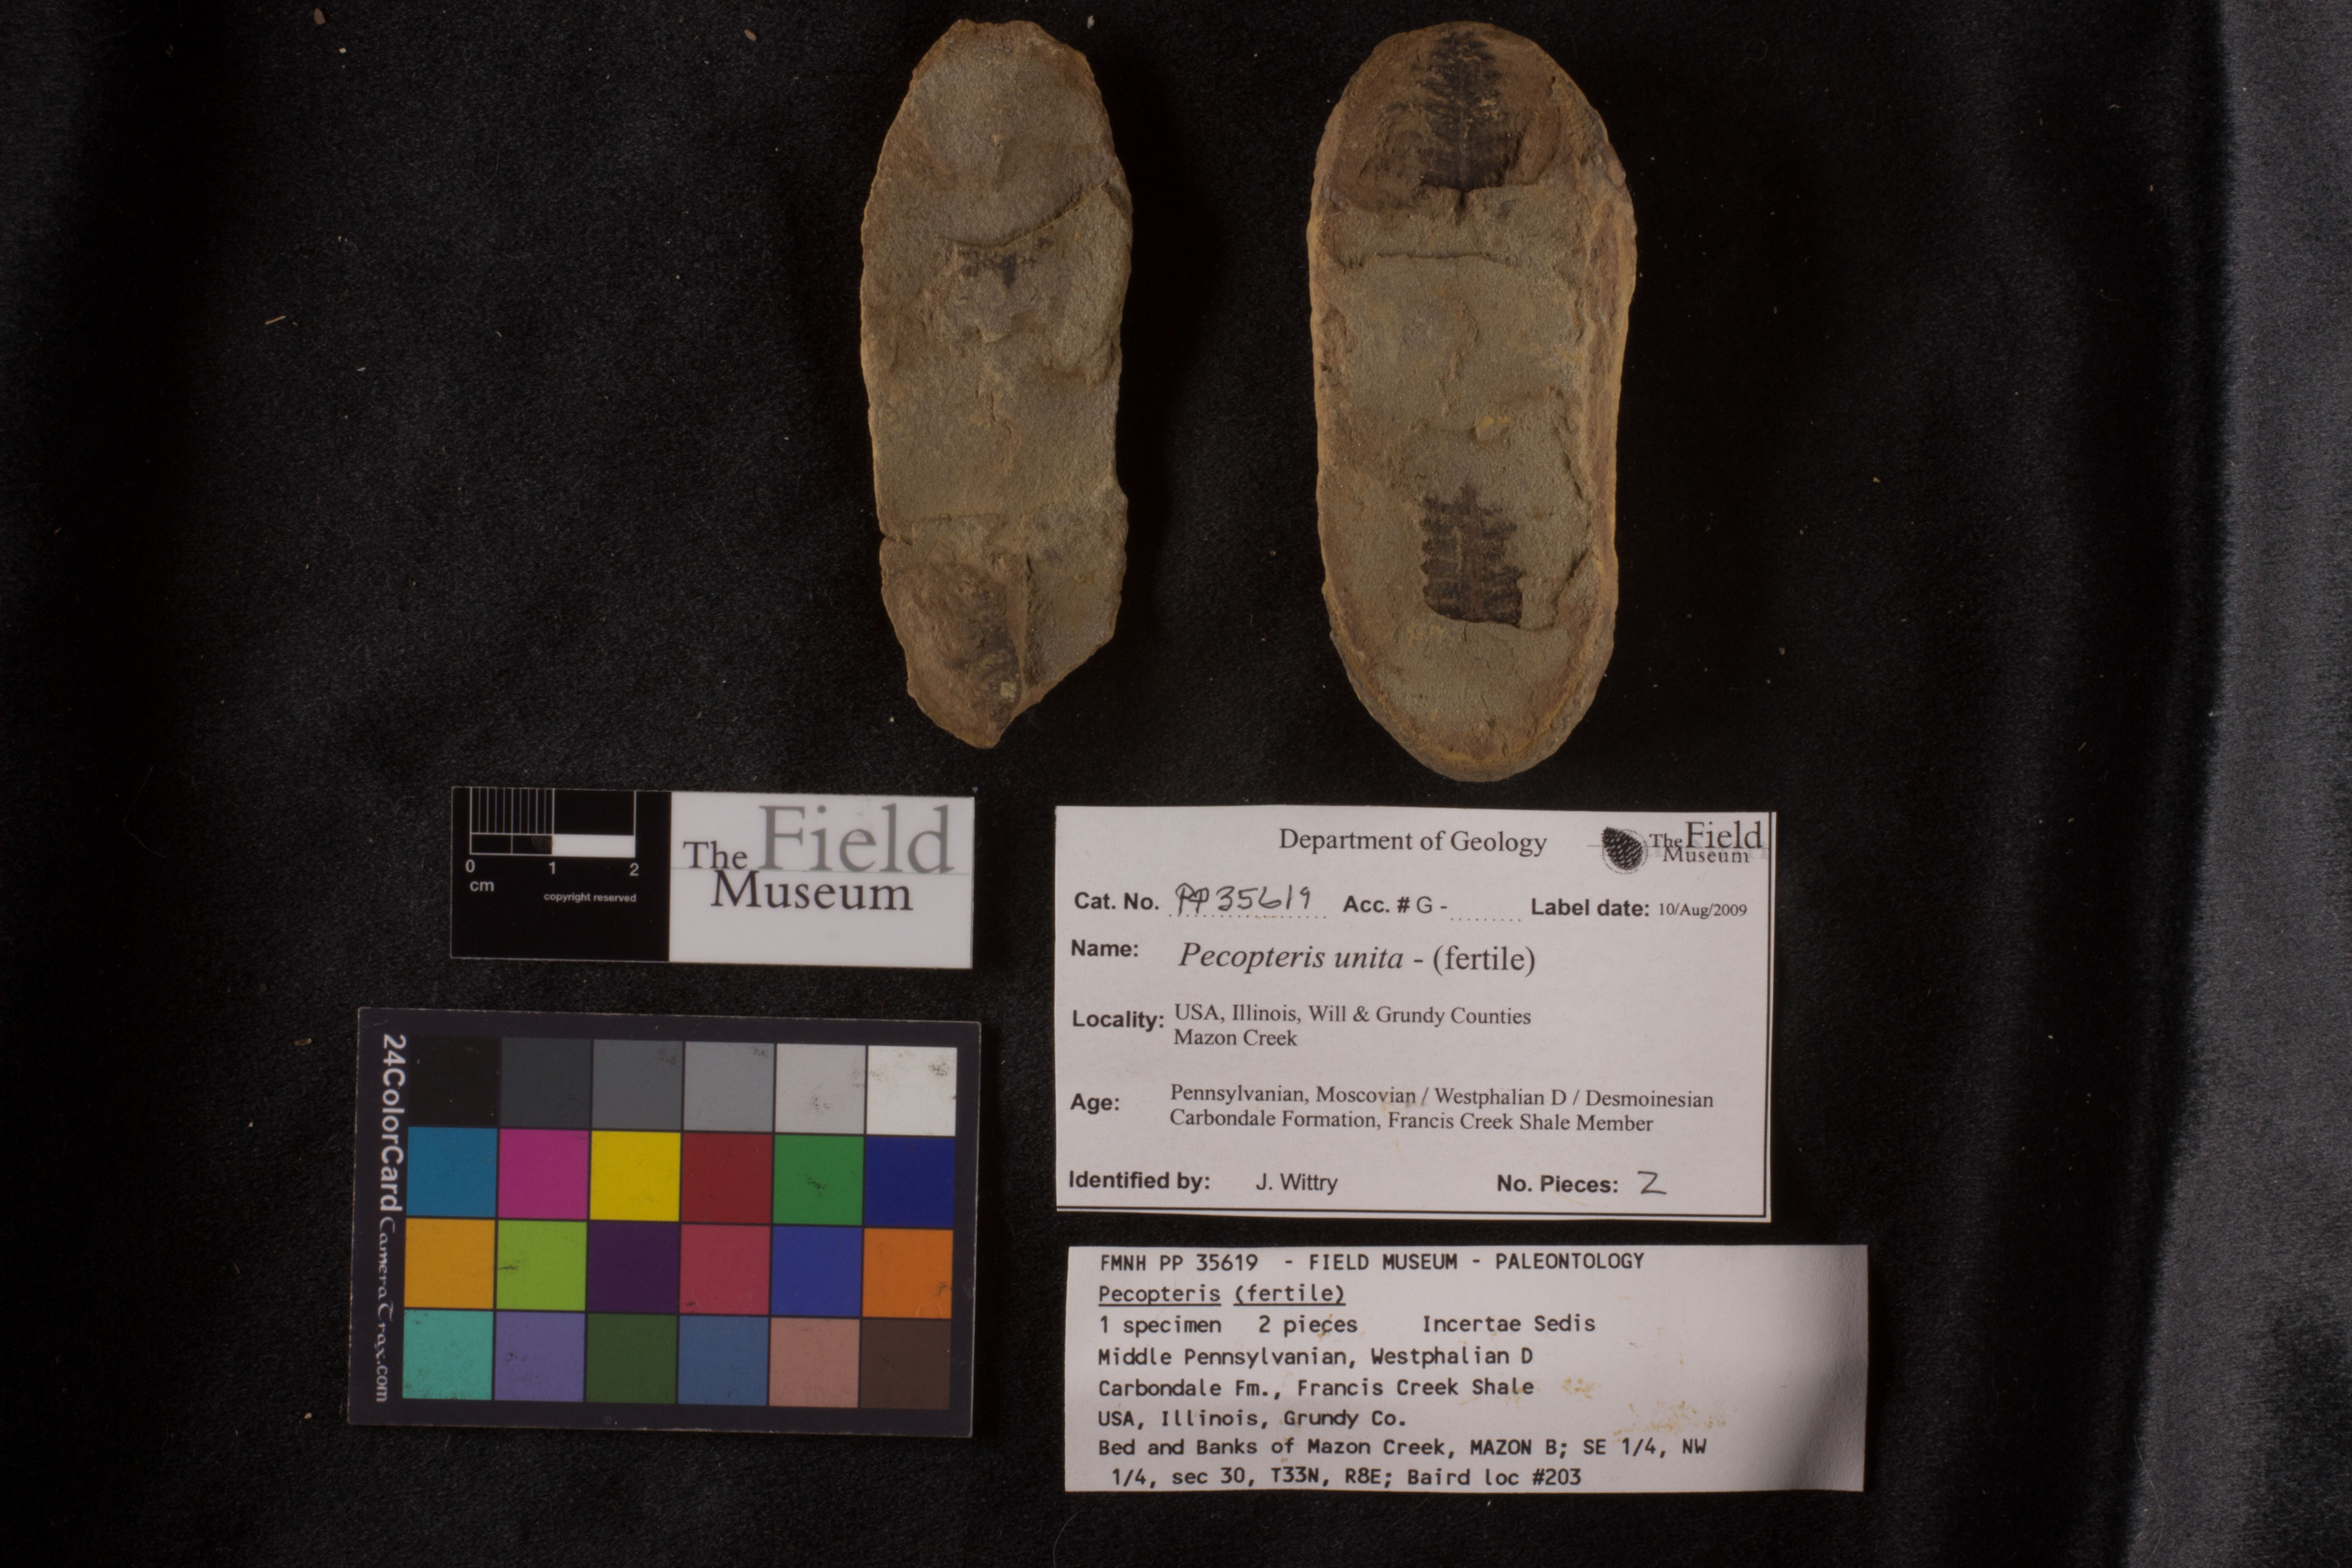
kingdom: Plantae
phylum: Tracheophyta
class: Polypodiopsida
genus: Diplazites
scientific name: Diplazites
